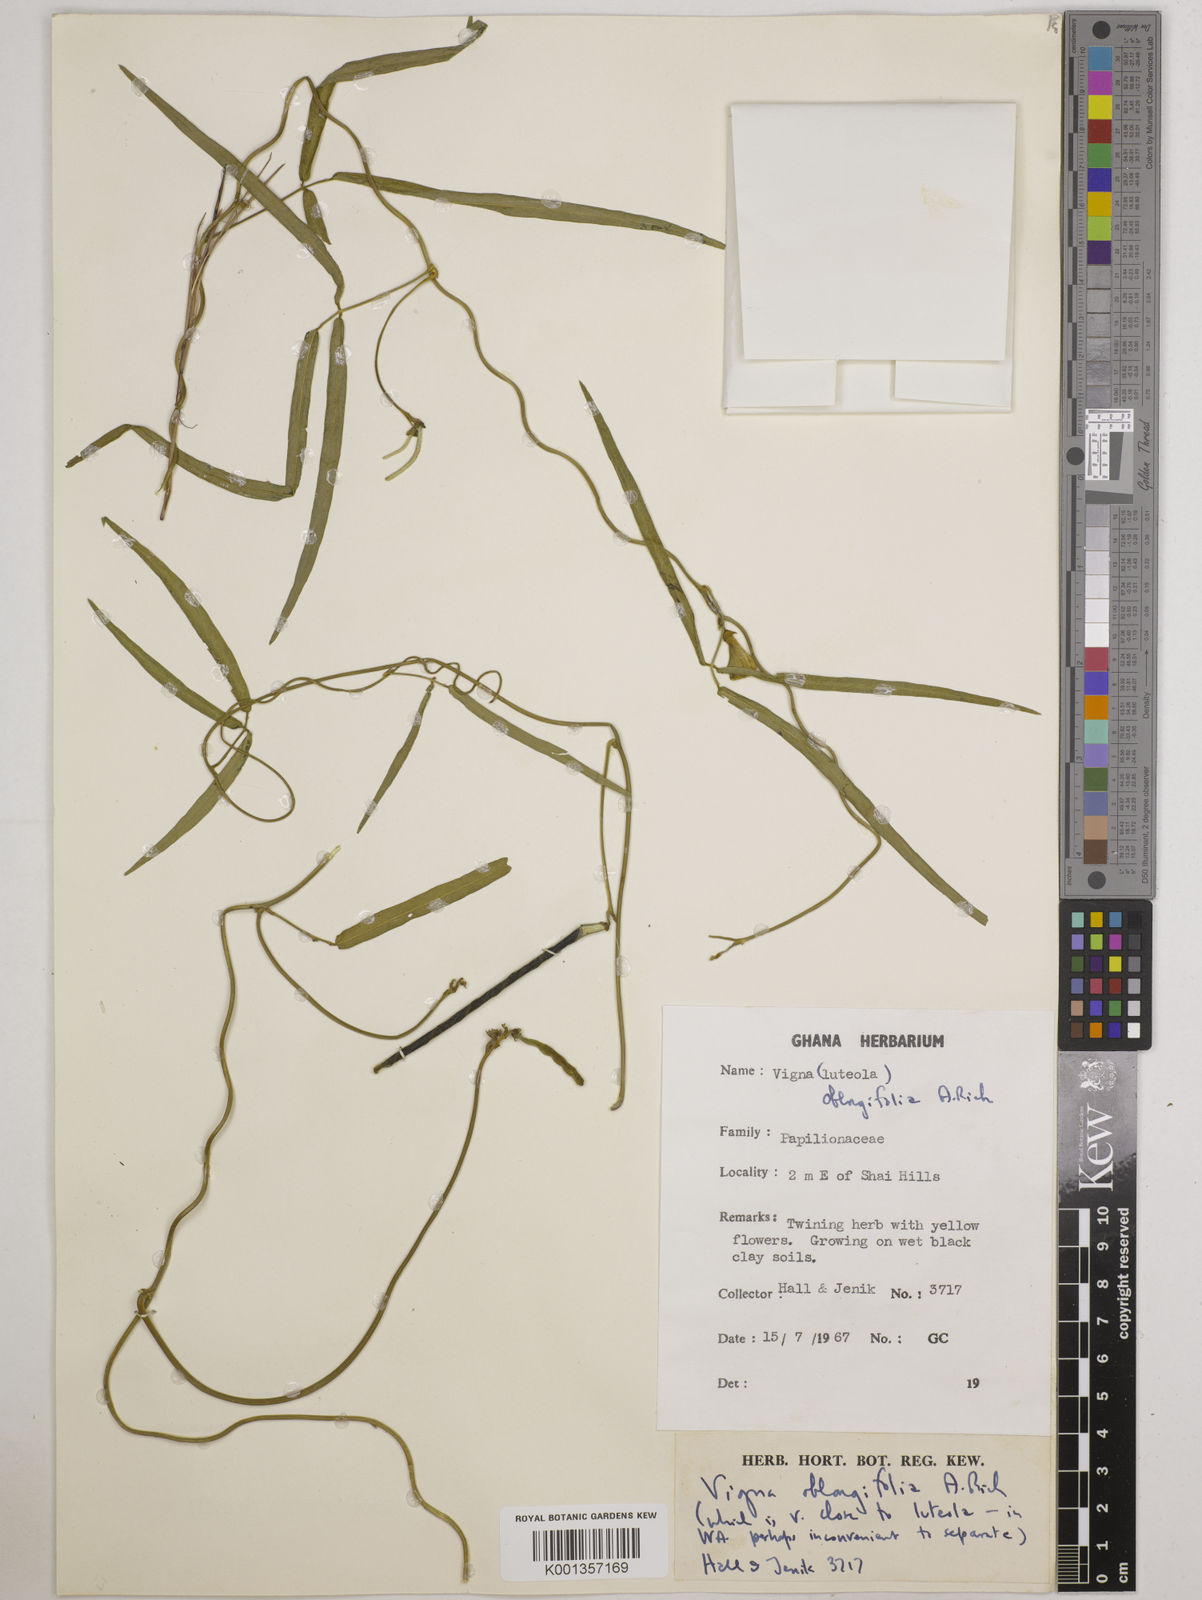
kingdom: Plantae
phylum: Tracheophyta
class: Magnoliopsida
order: Fabales
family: Fabaceae
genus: Vigna
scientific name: Vigna oblongifolia
